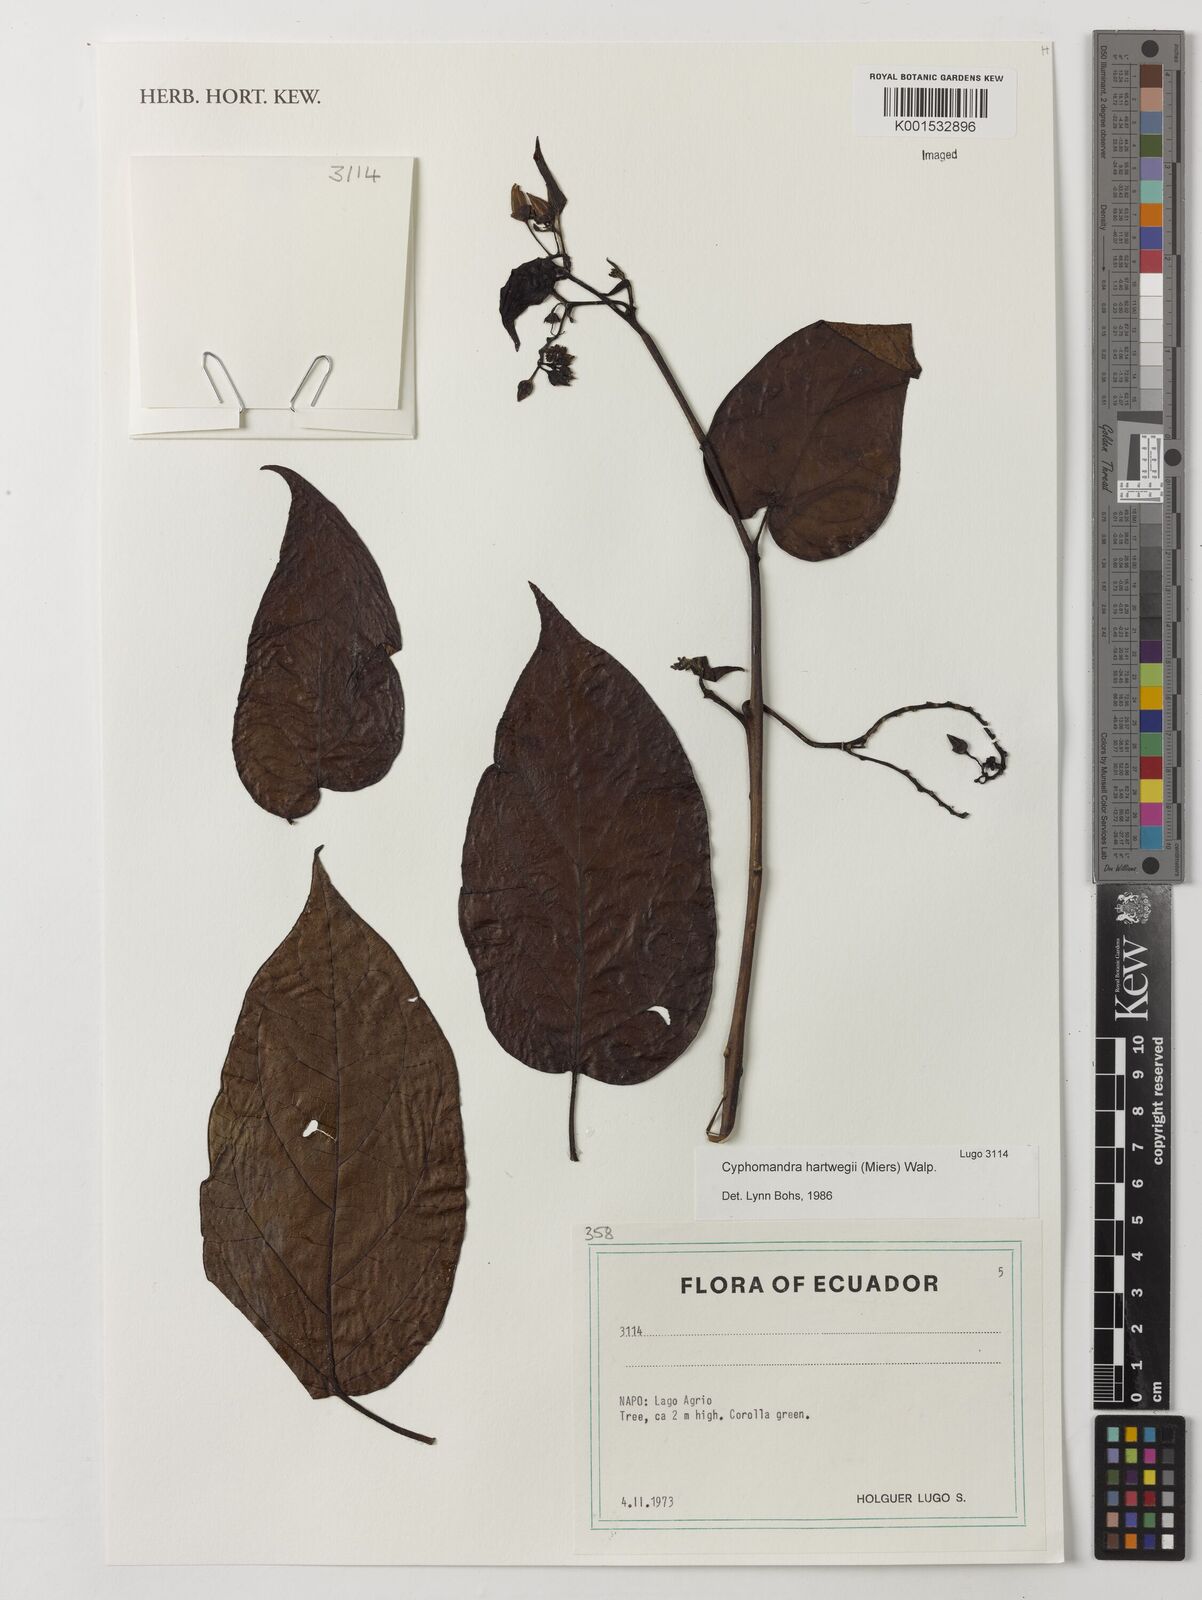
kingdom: Plantae
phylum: Tracheophyta
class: Magnoliopsida
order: Solanales
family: Solanaceae
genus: Solanum
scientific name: Solanum splendens
